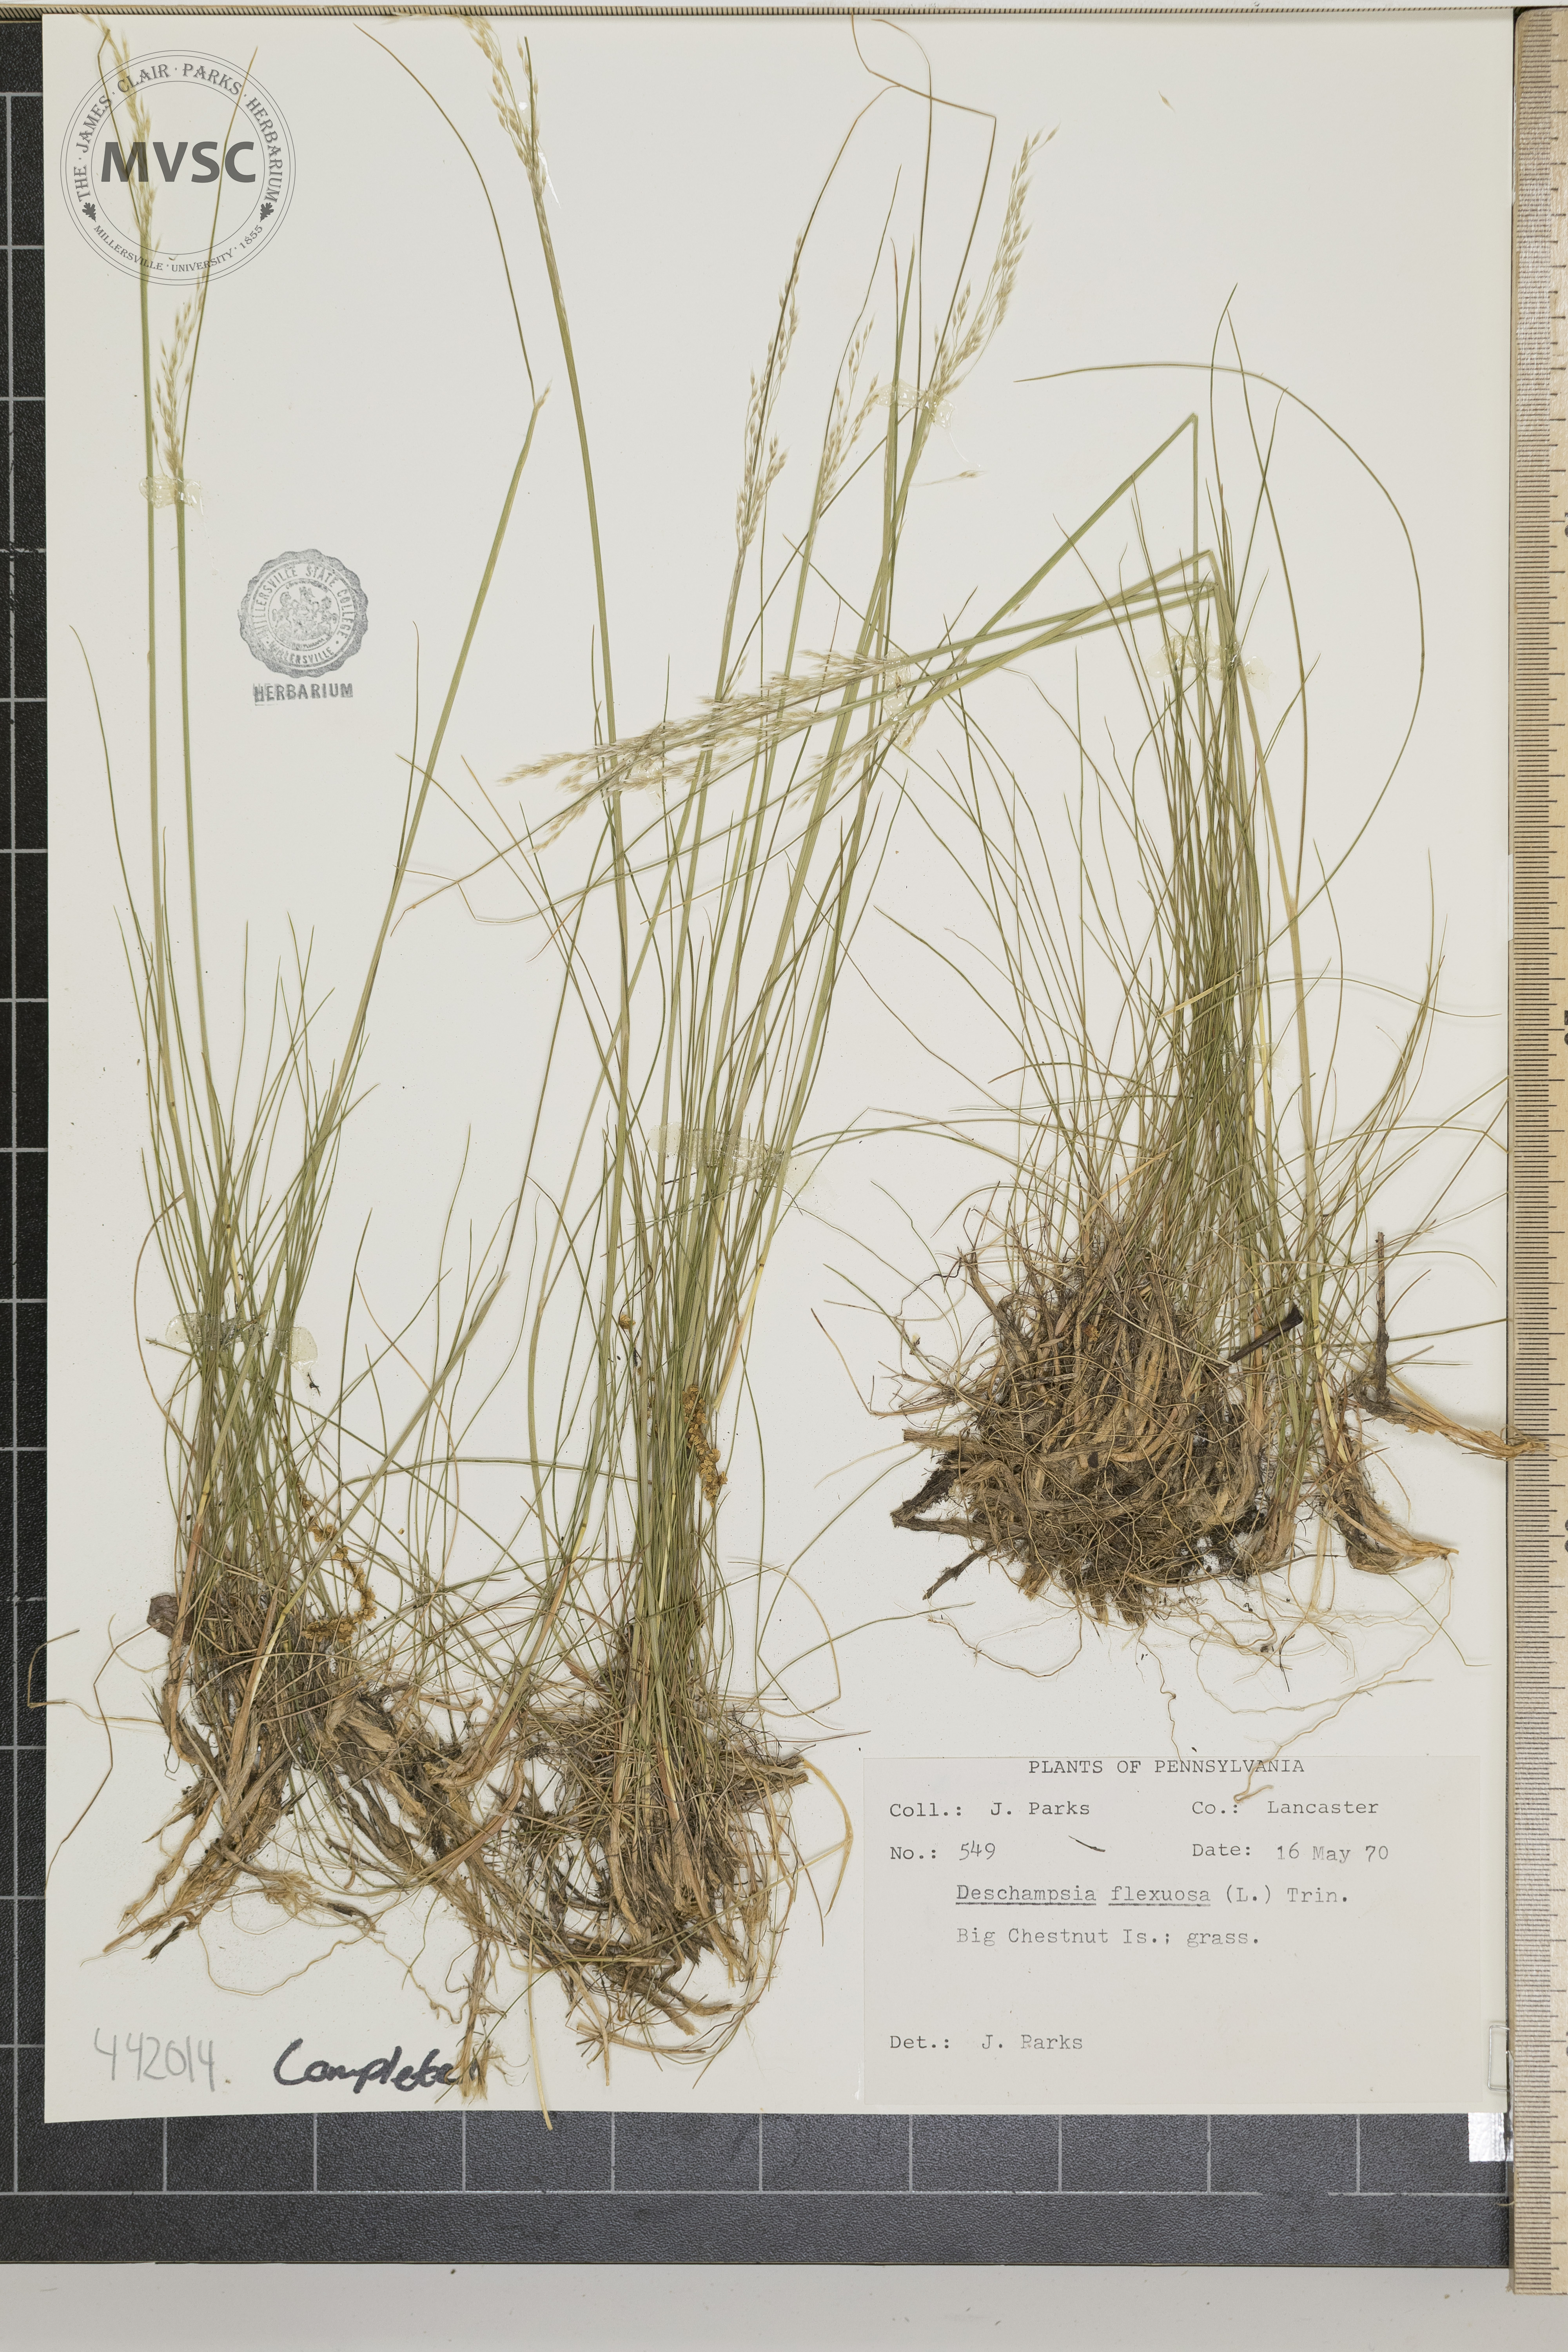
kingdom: Plantae
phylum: Tracheophyta
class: Liliopsida
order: Poales
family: Poaceae
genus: Avenella
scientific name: Avenella flexuosa
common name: Wavy hairgrass
